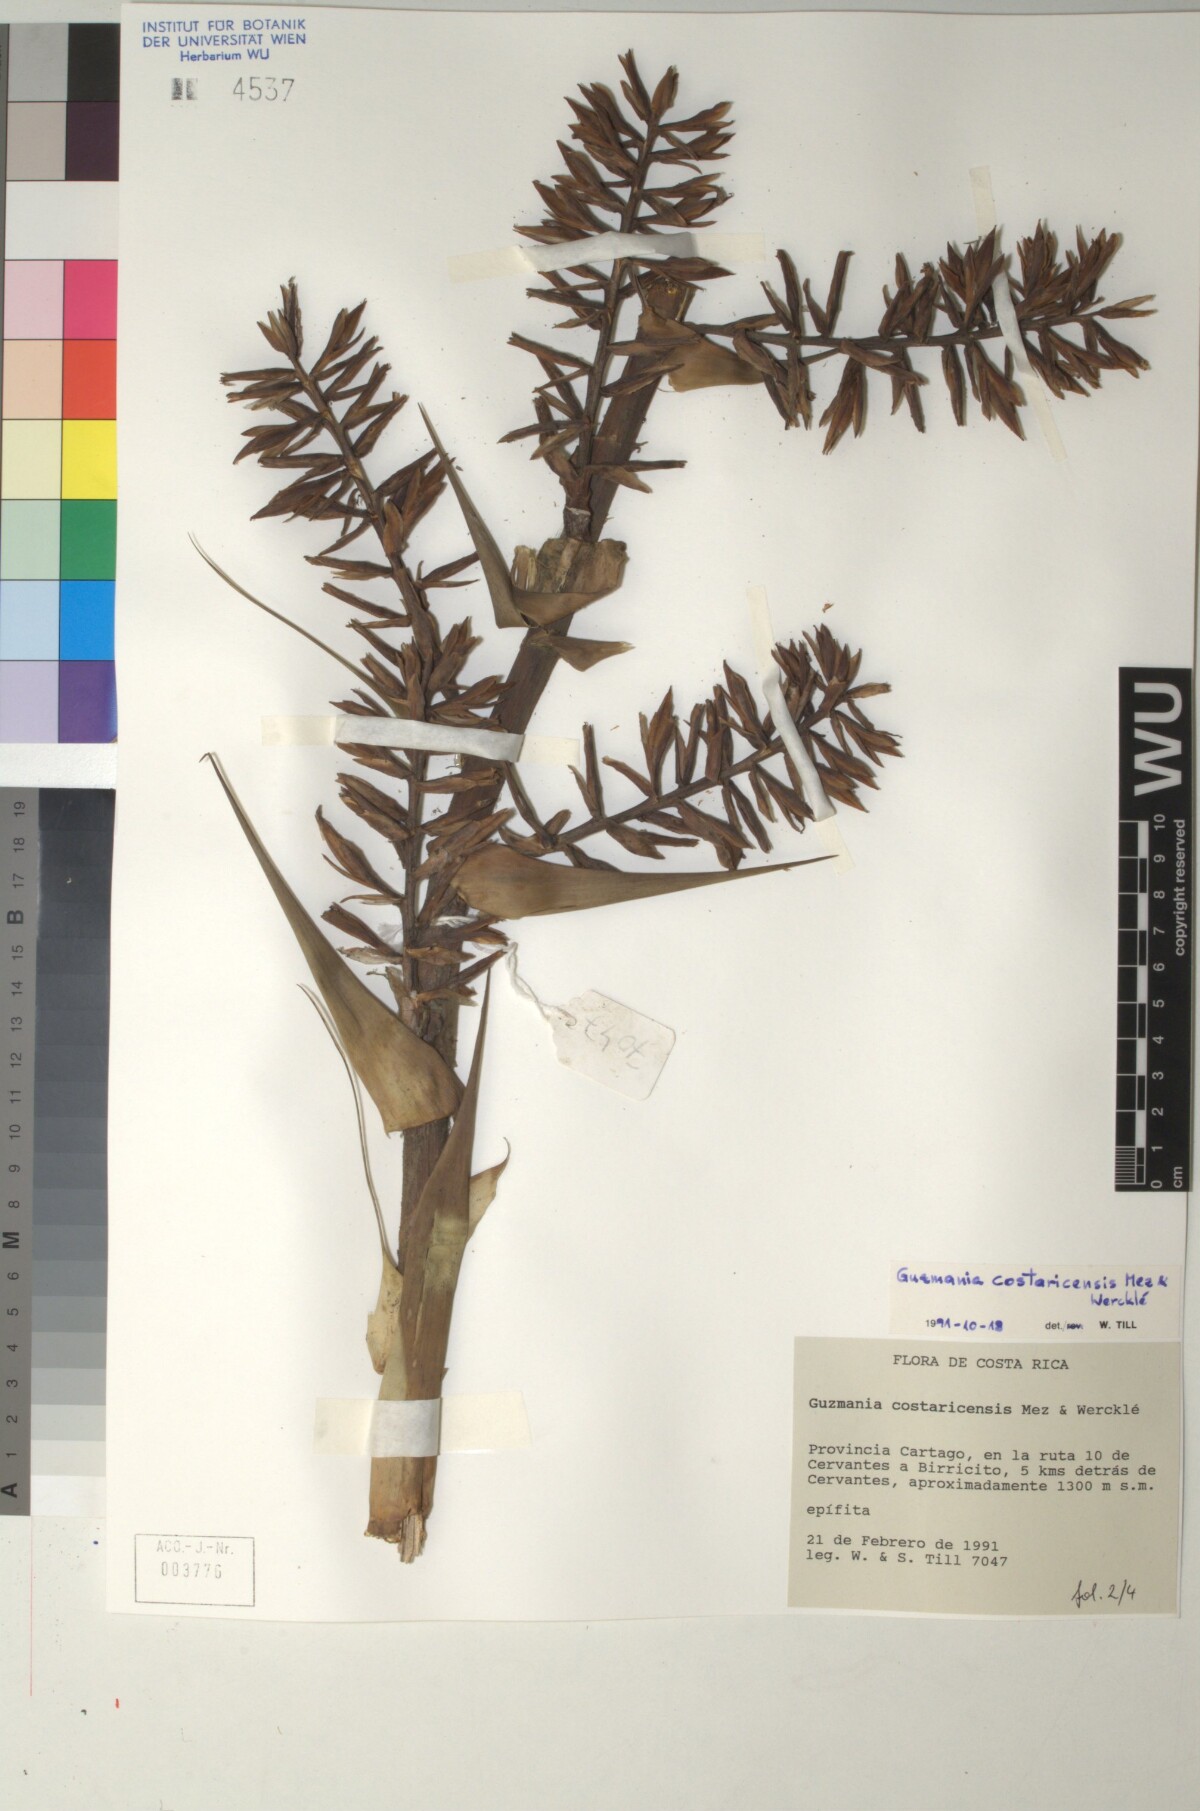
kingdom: Plantae
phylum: Tracheophyta
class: Liliopsida
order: Poales
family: Bromeliaceae
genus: Guzmania
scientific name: Guzmania condensata
